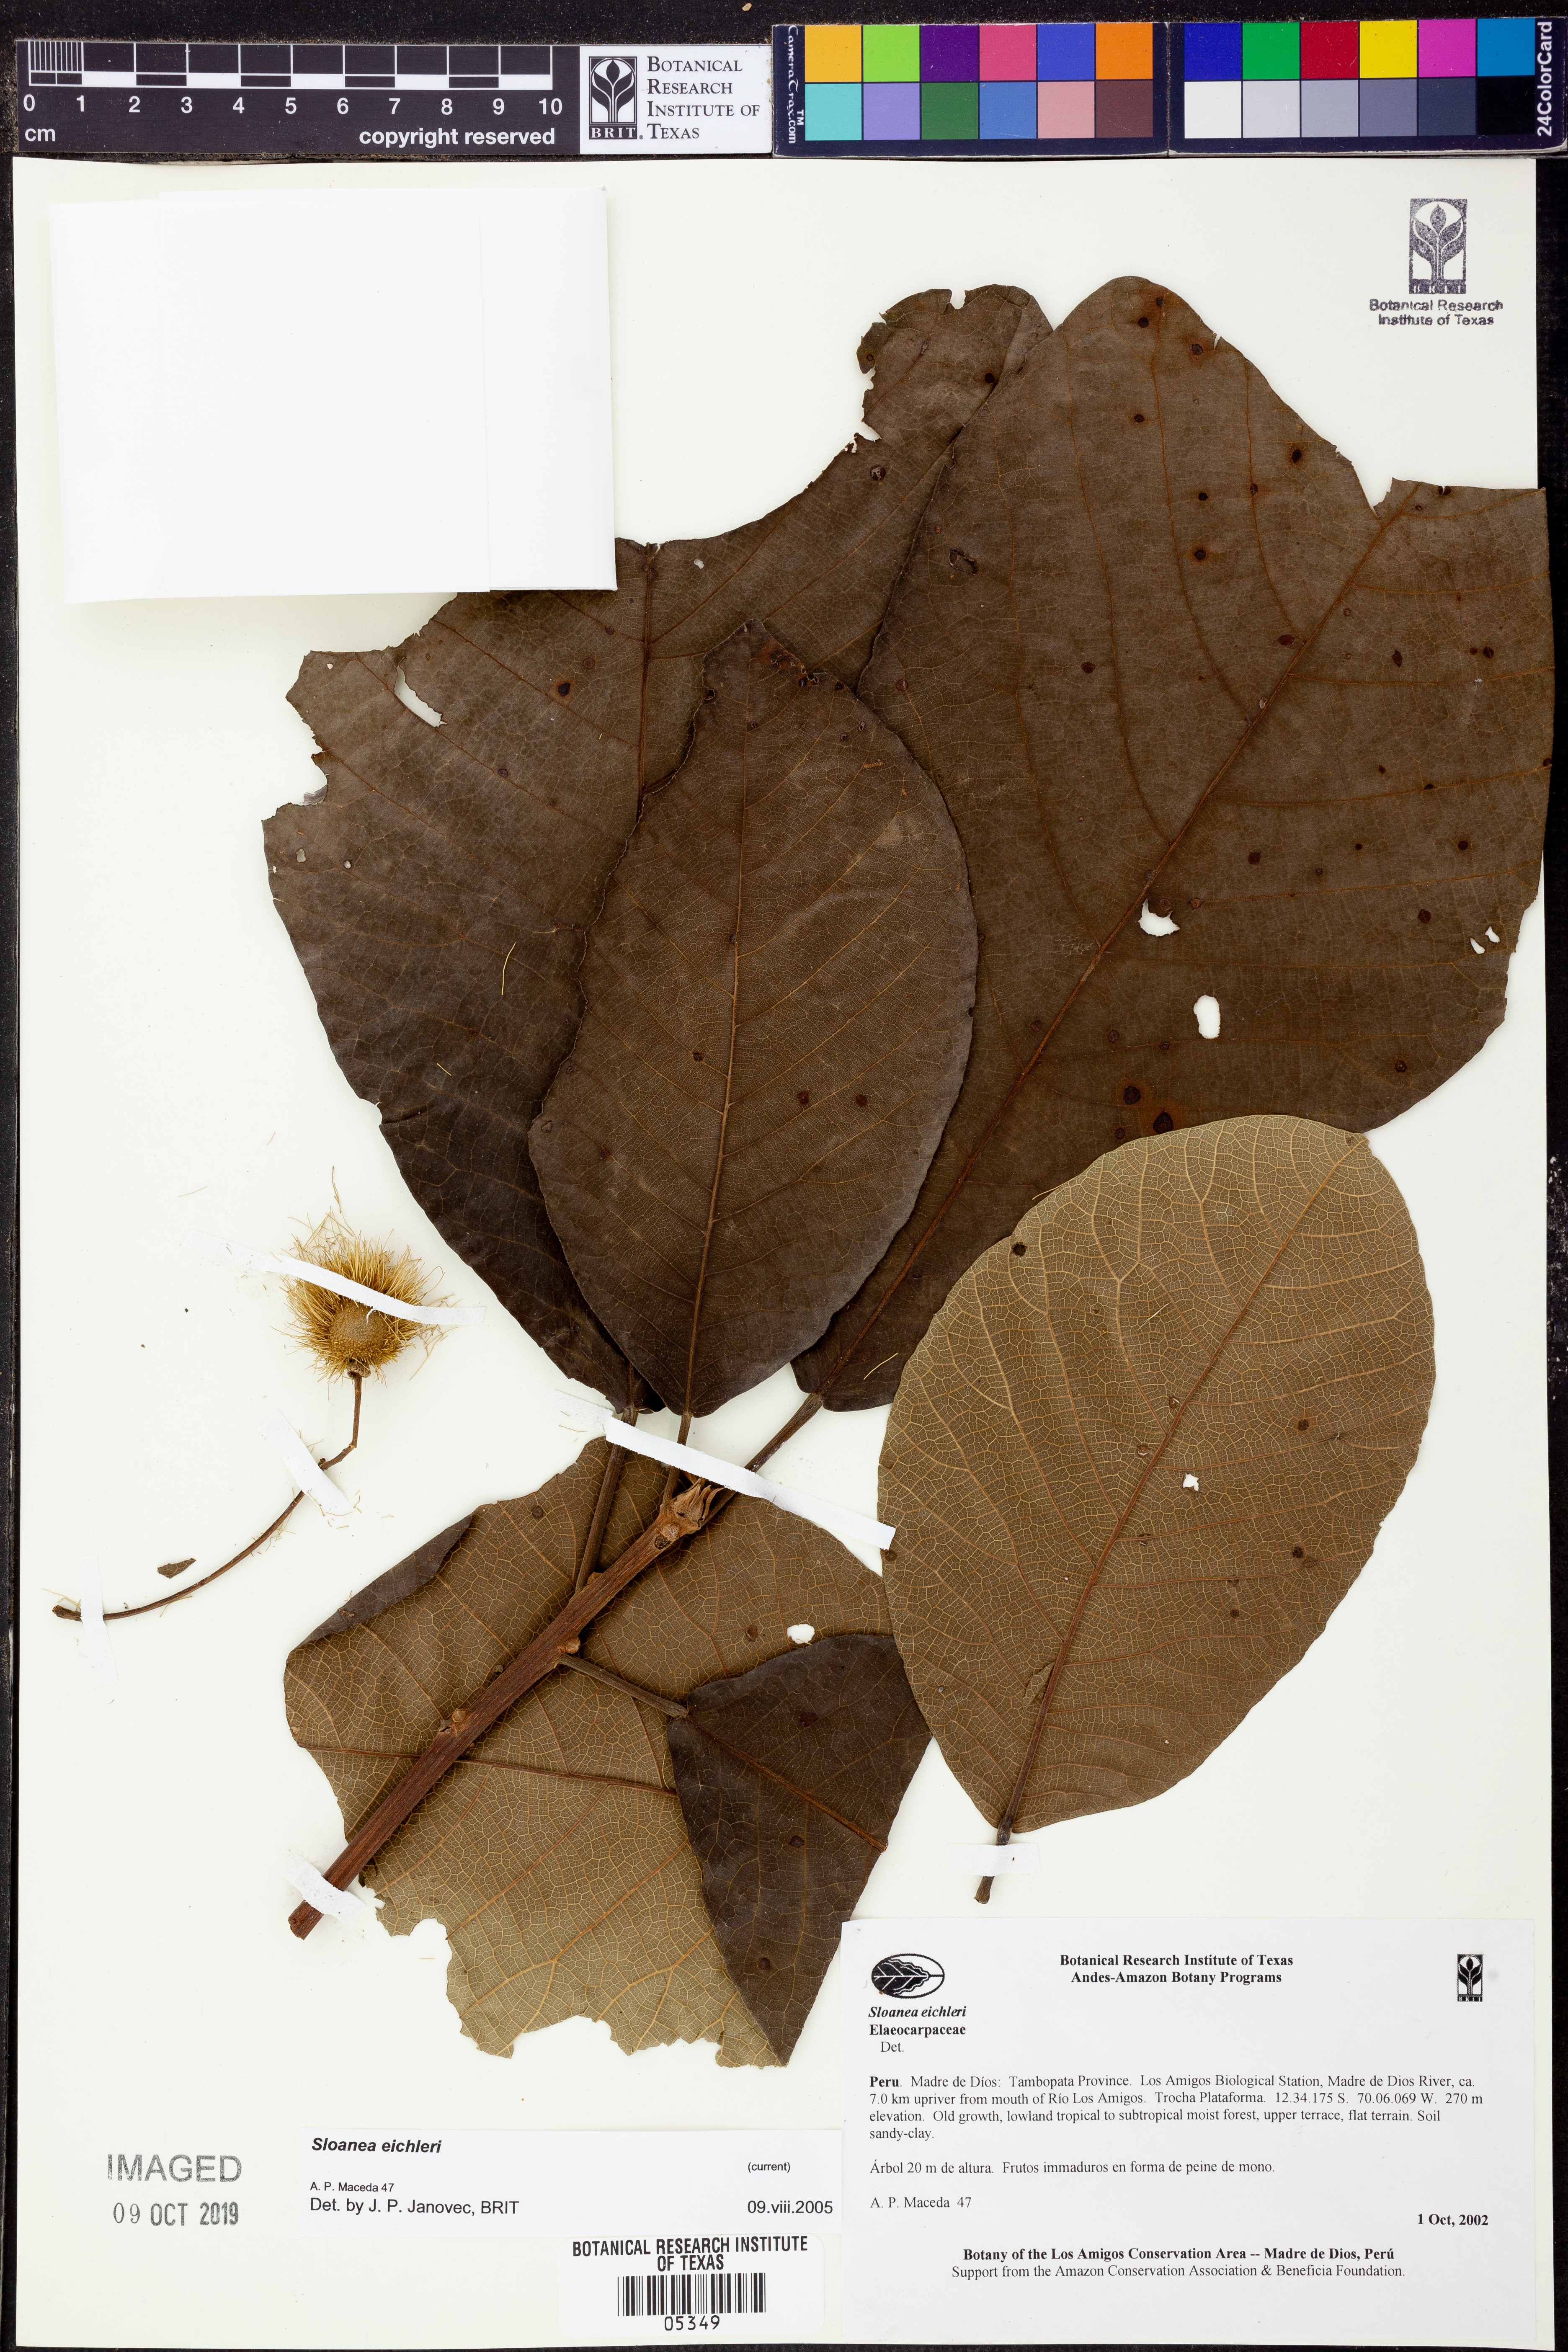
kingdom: Plantae
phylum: Tracheophyta
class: Magnoliopsida
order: Oxalidales
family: Elaeocarpaceae
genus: Sloanea
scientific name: Sloanea
